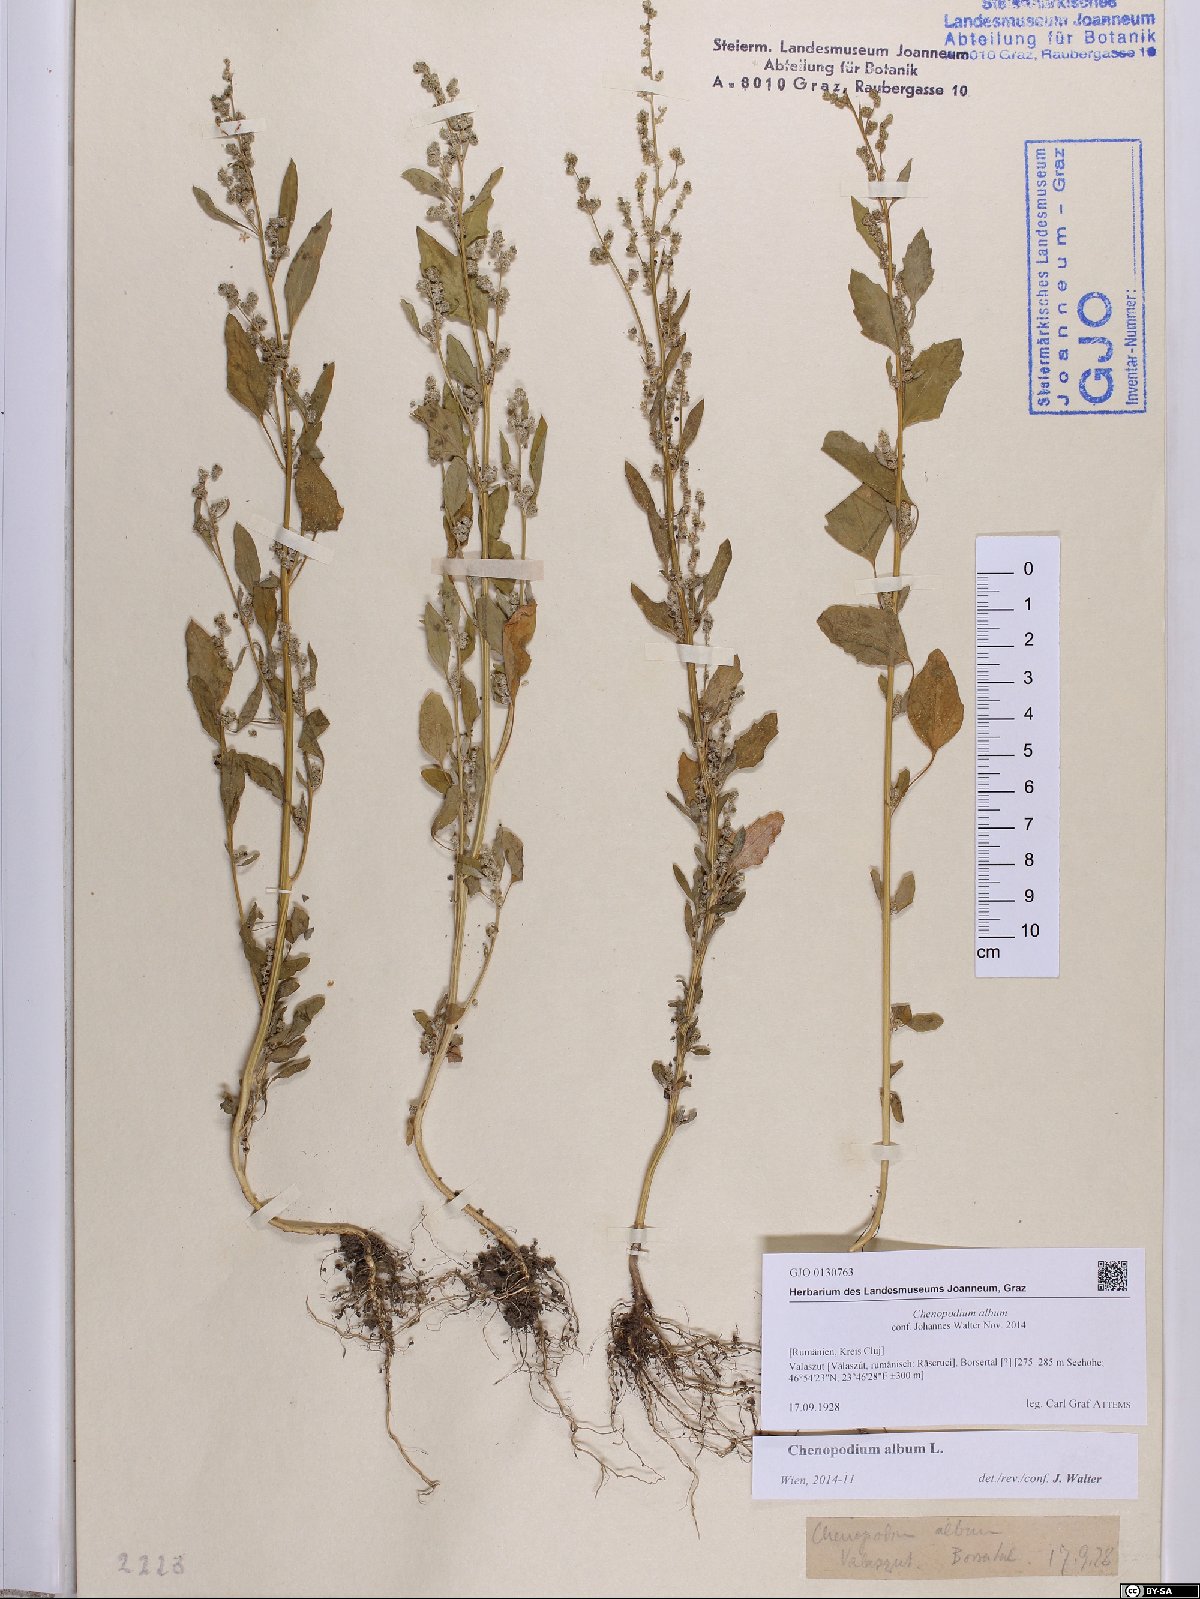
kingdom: Plantae
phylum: Tracheophyta
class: Magnoliopsida
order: Caryophyllales
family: Amaranthaceae
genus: Chenopodium
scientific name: Chenopodium album
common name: Fat-hen
